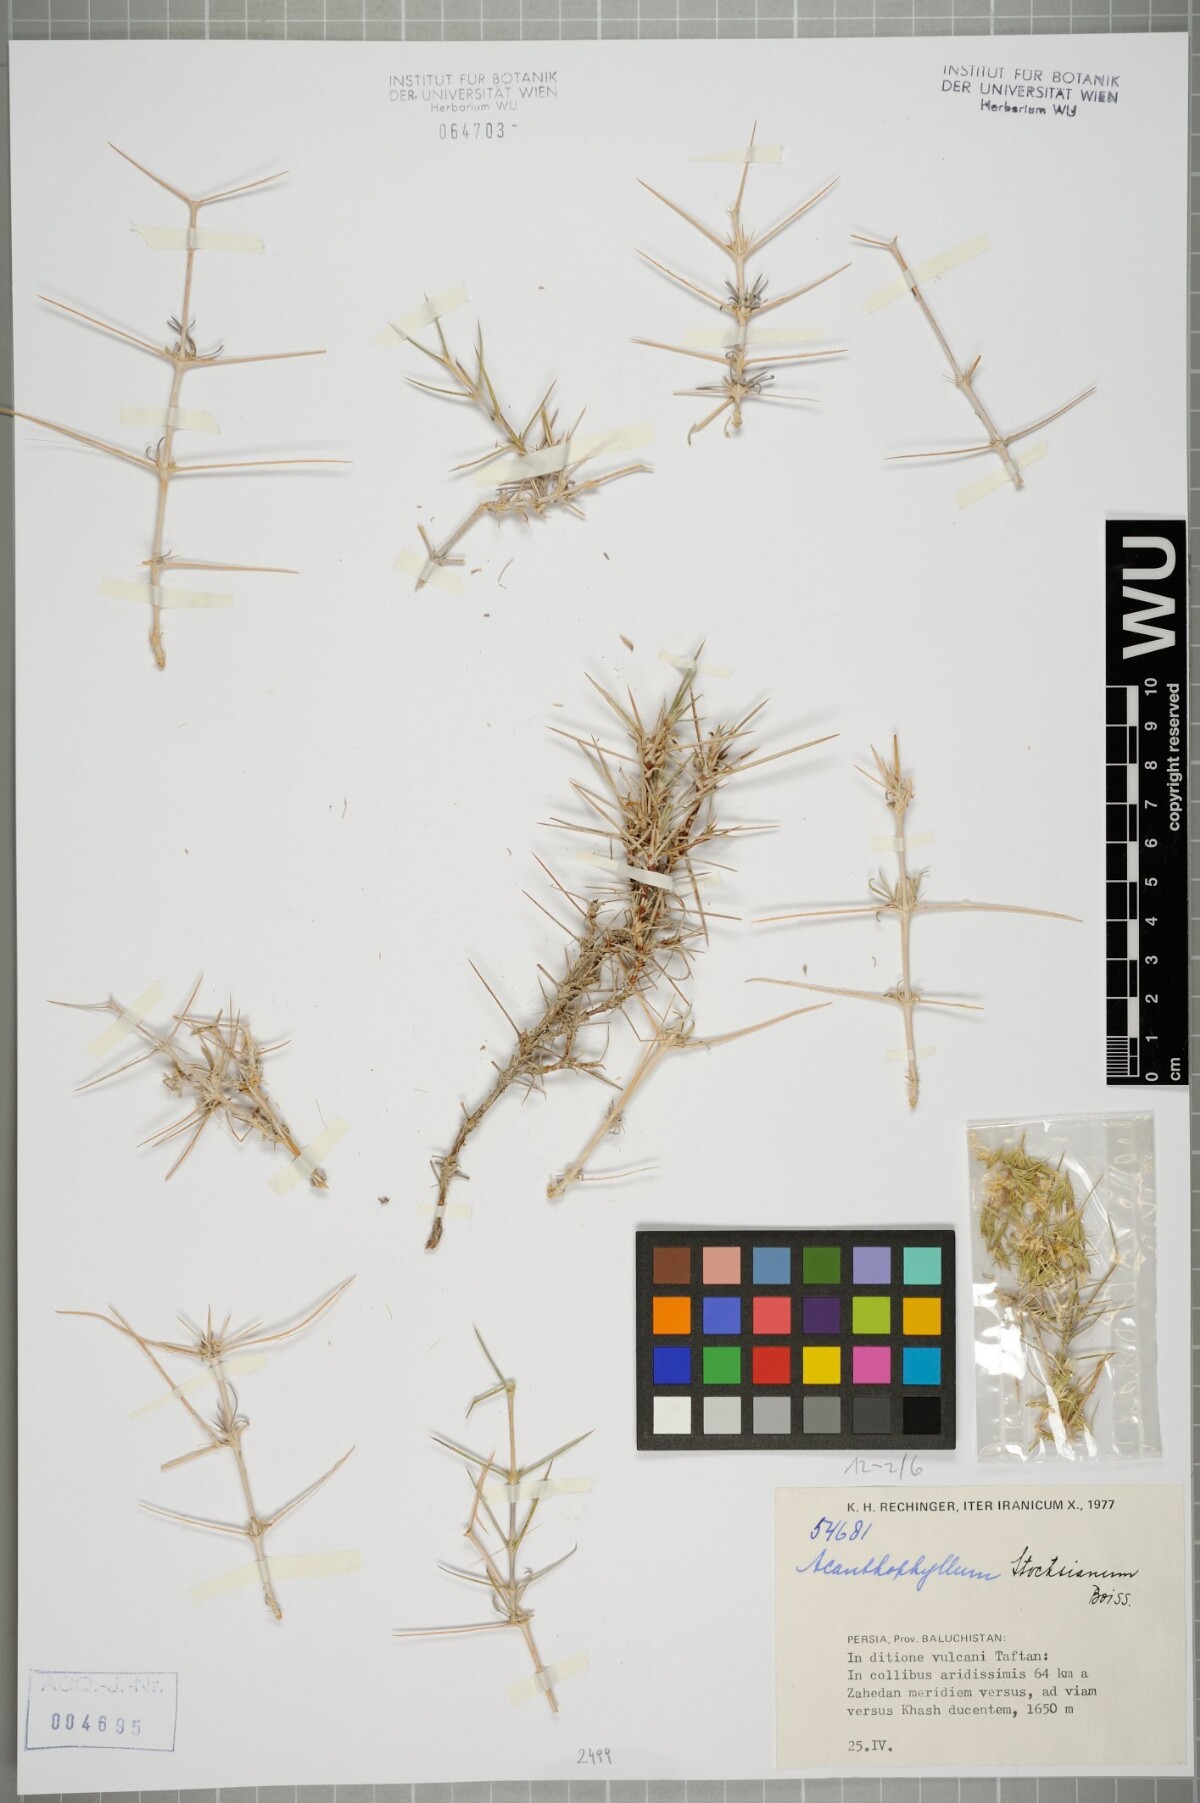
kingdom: Plantae
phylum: Tracheophyta
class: Magnoliopsida
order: Caryophyllales
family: Caryophyllaceae
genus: Acanthophyllum
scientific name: Acanthophyllum stocksianum
